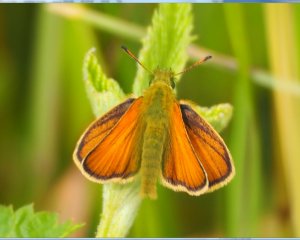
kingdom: Animalia
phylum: Arthropoda
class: Insecta
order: Lepidoptera
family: Hesperiidae
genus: Thymelicus
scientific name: Thymelicus lineola
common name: European Skipper
